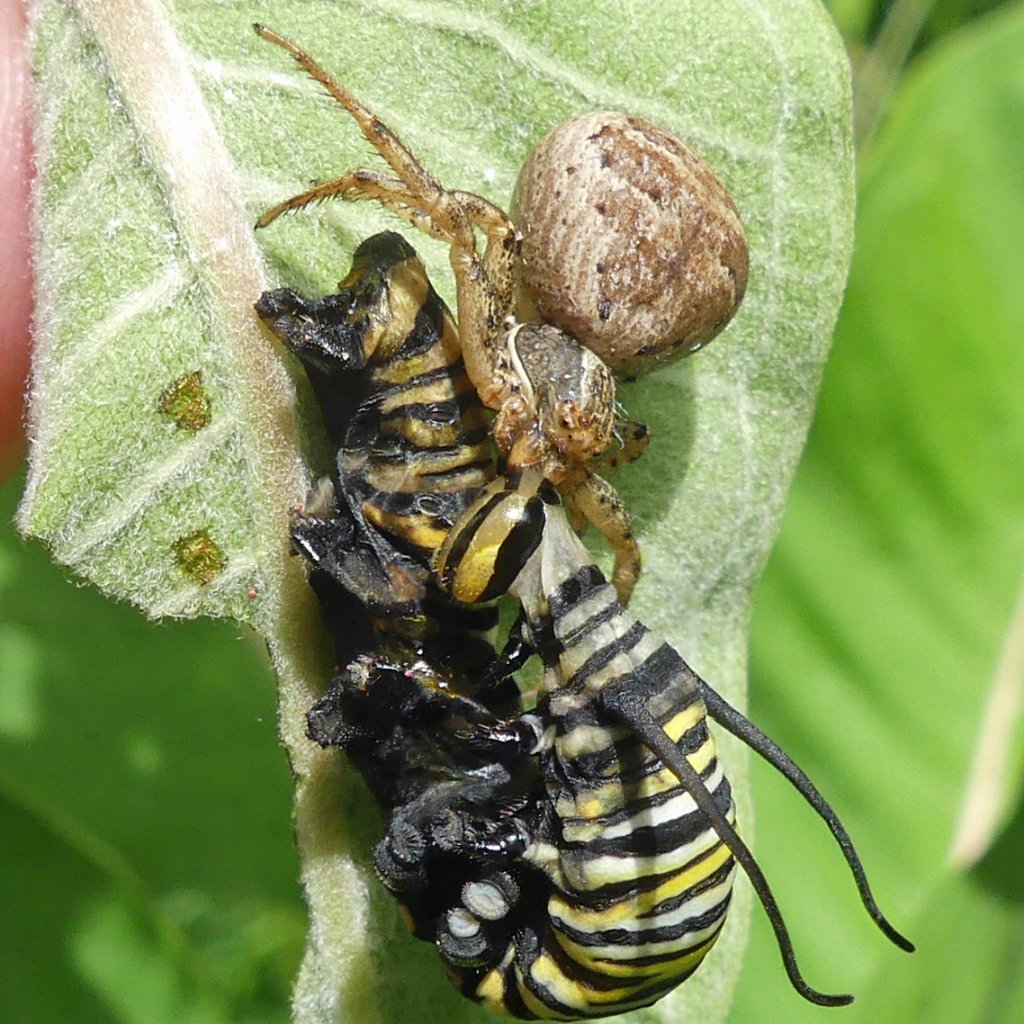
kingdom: Animalia
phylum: Arthropoda
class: Insecta
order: Lepidoptera
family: Nymphalidae
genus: Danaus
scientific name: Danaus plexippus
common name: Monarch
